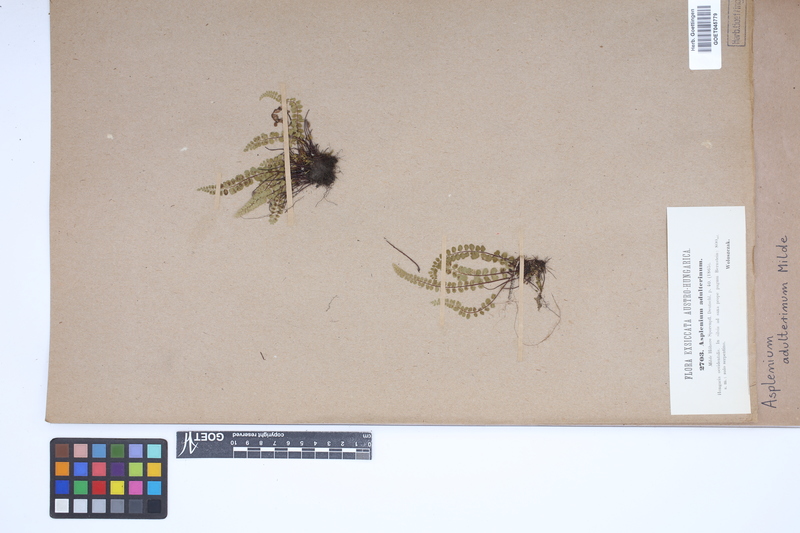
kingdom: Plantae
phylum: Tracheophyta
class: Polypodiopsida
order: Polypodiales
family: Aspleniaceae
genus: Asplenium
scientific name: Asplenium adulterinum
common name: Adulterated spleenwort
